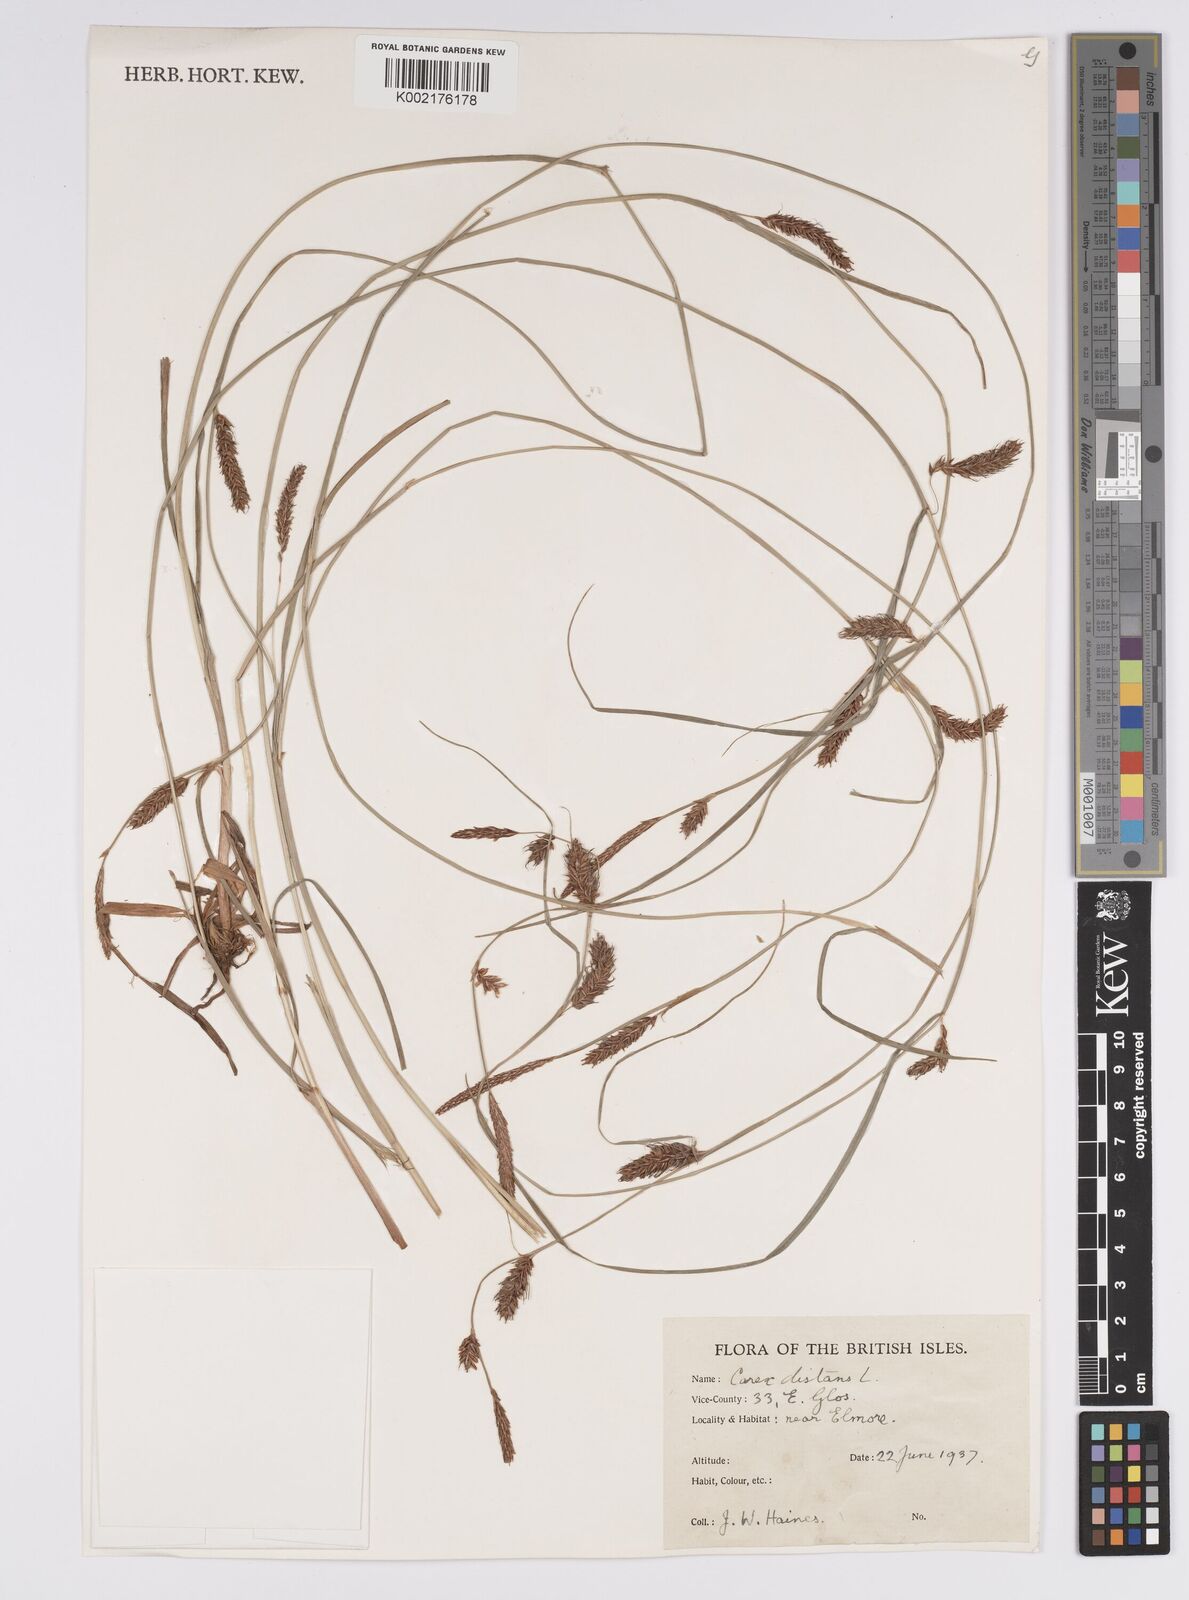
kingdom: Plantae
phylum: Tracheophyta
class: Liliopsida
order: Poales
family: Cyperaceae
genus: Carex
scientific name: Carex distans
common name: Distant sedge
